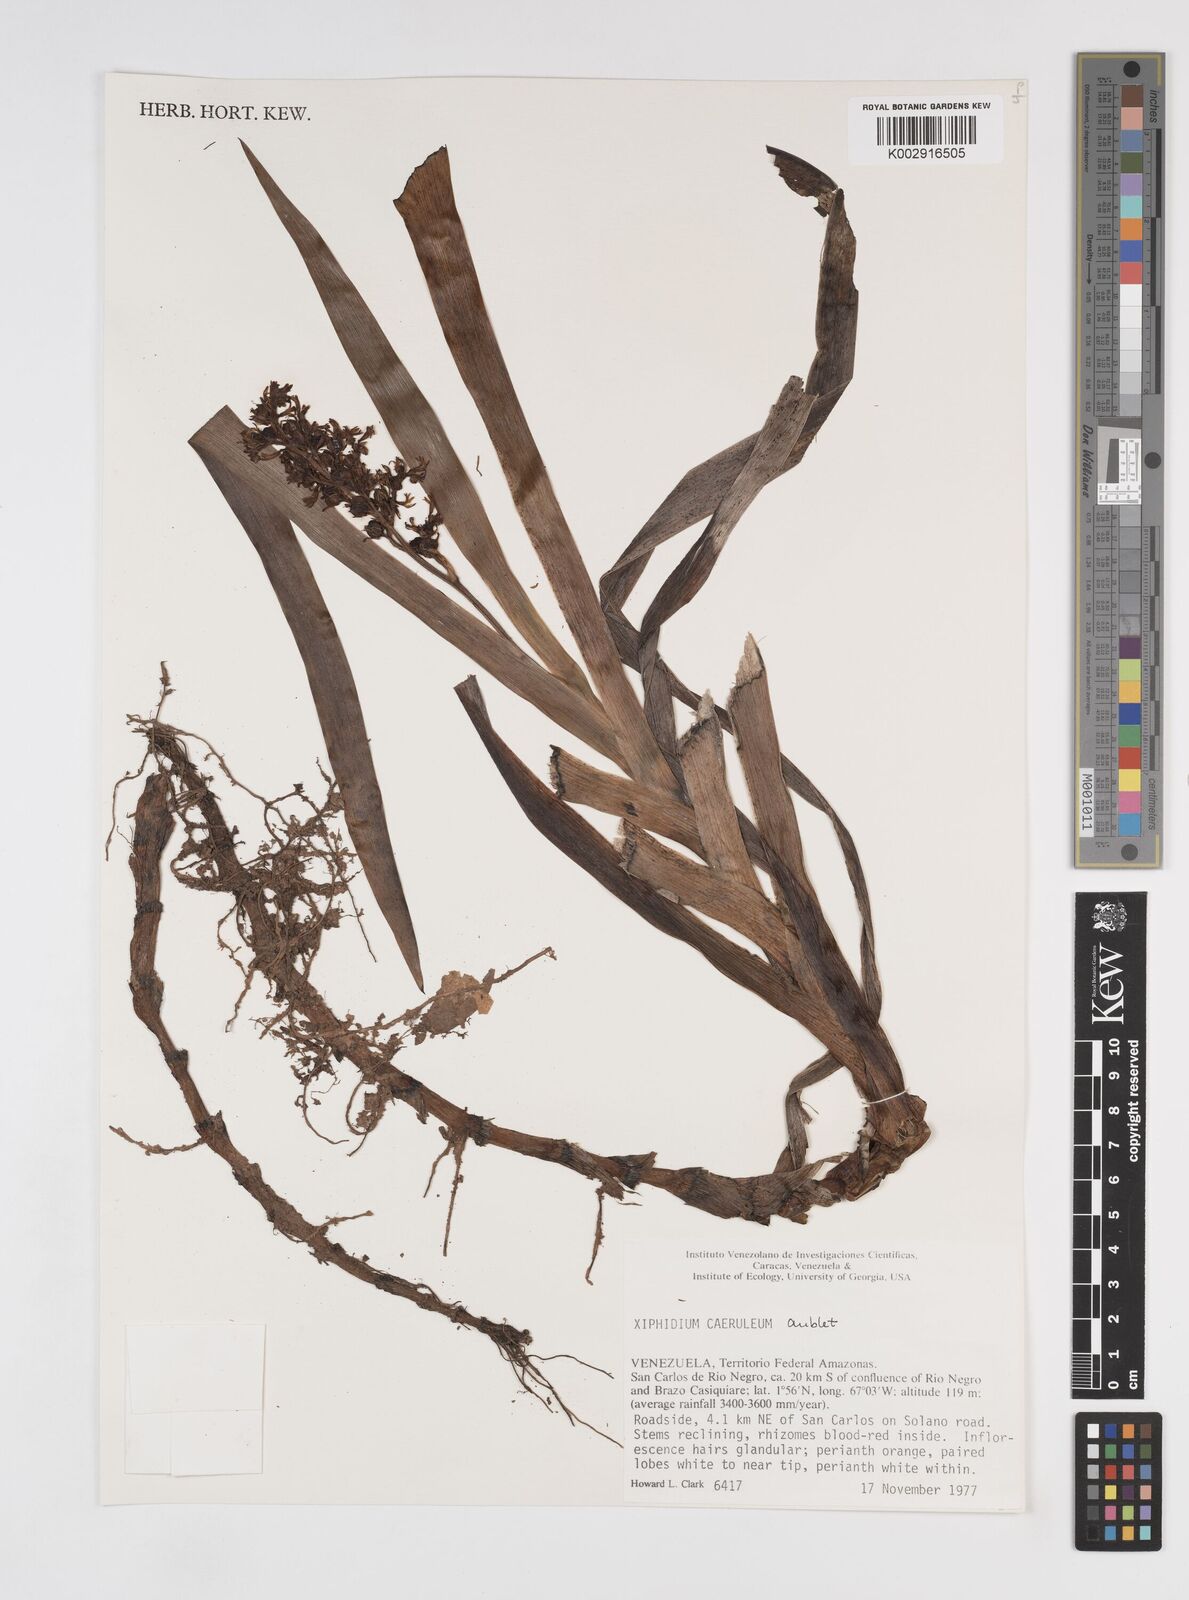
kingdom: Plantae
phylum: Tracheophyta
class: Liliopsida
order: Commelinales
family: Haemodoraceae
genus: Xiphidium
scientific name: Xiphidium caeruleum
